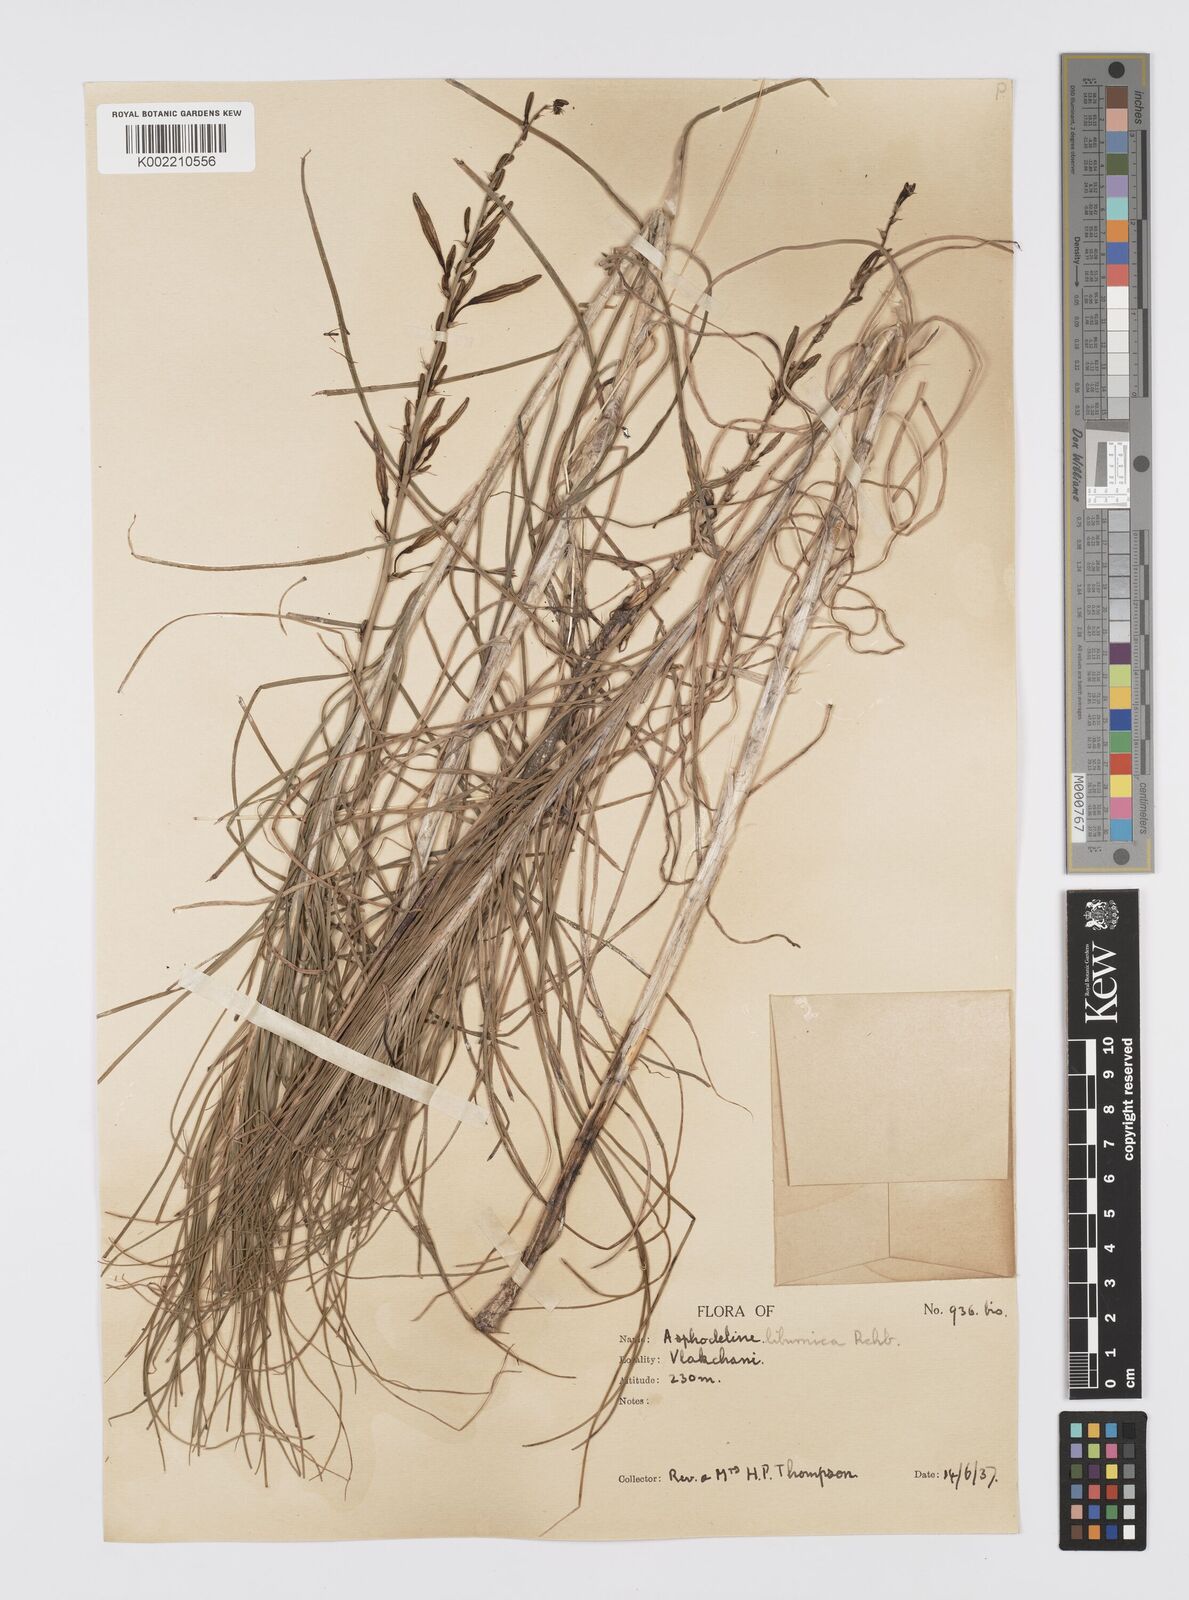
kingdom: Plantae
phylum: Tracheophyta
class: Liliopsida
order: Asparagales
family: Asphodelaceae
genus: Asphodeline
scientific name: Asphodeline liburnica
